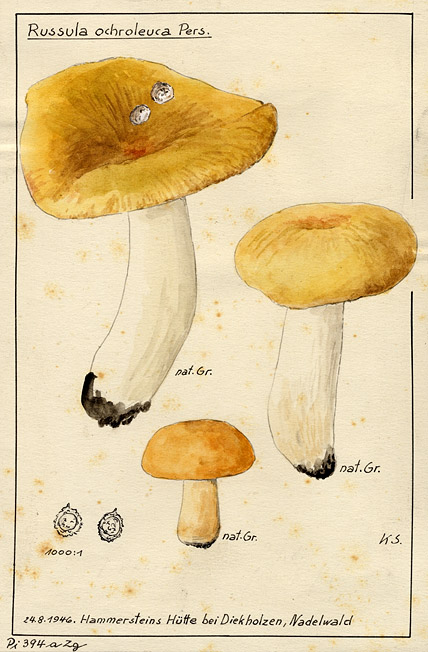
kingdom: Fungi
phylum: Basidiomycota
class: Agaricomycetes
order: Russulales
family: Russulaceae
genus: Russula
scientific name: Russula ochroleuca
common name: Common yellow russula
